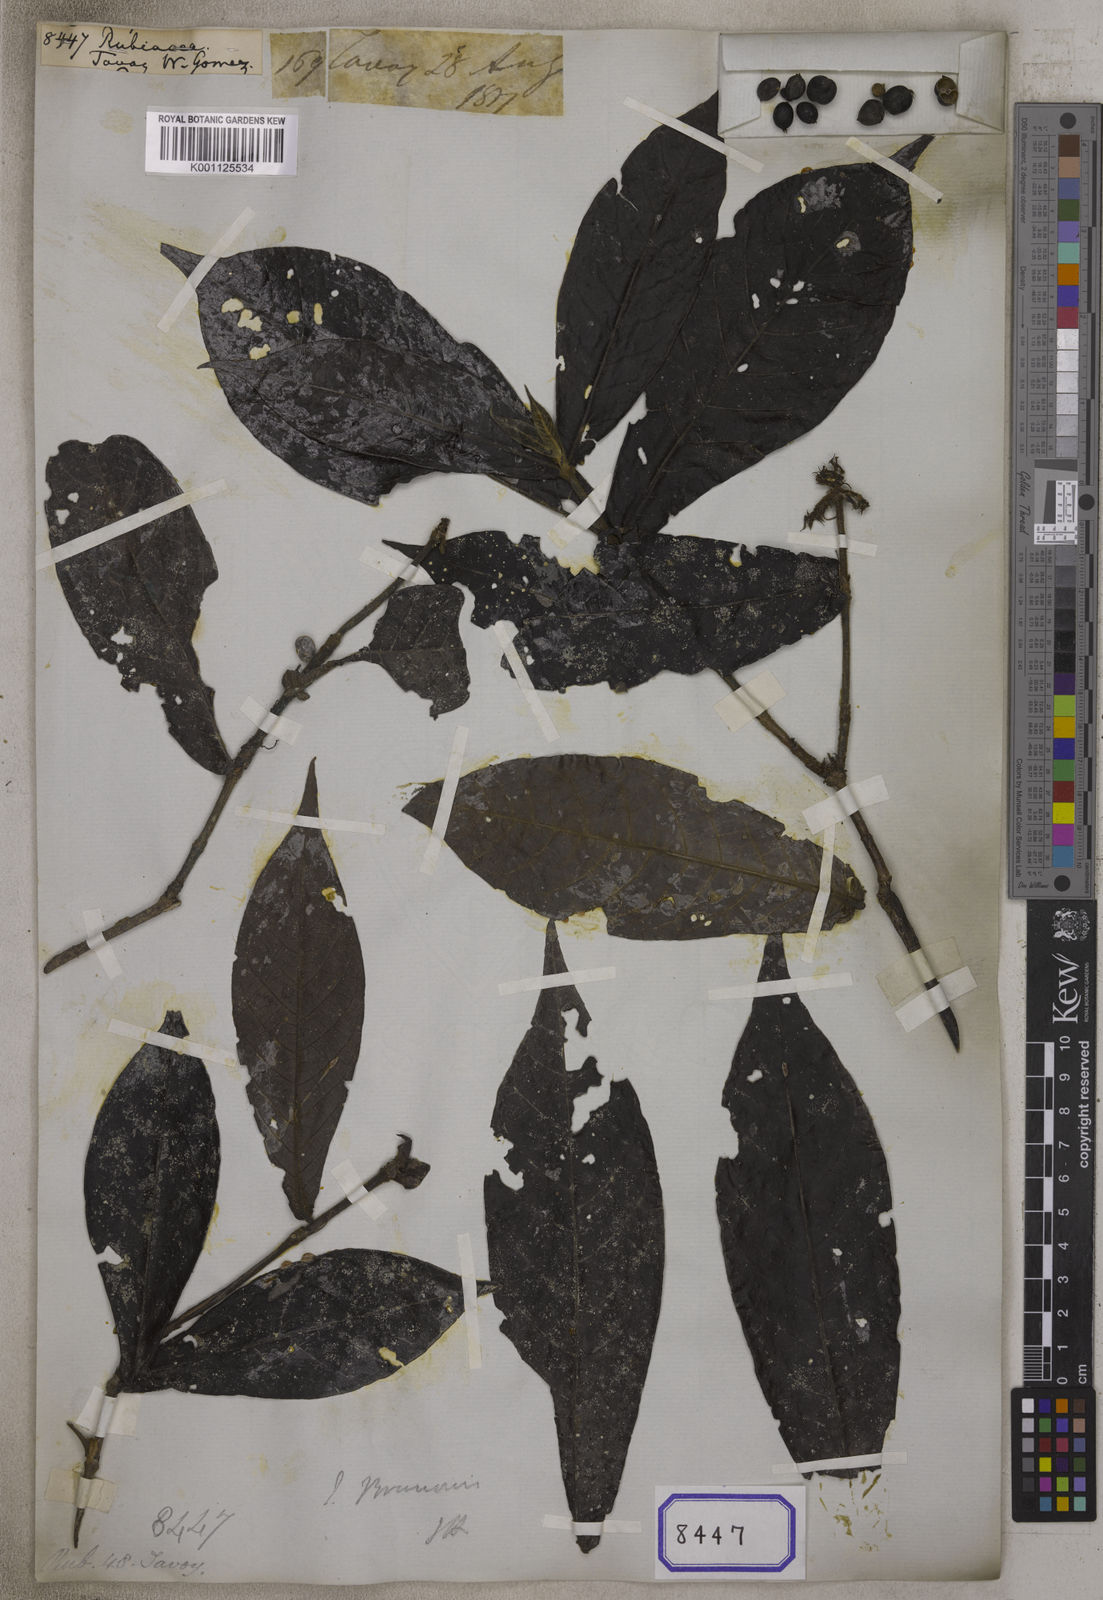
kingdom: Plantae
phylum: Tracheophyta
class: Magnoliopsida
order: Gentianales
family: Rubiaceae
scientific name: Rubiaceae
